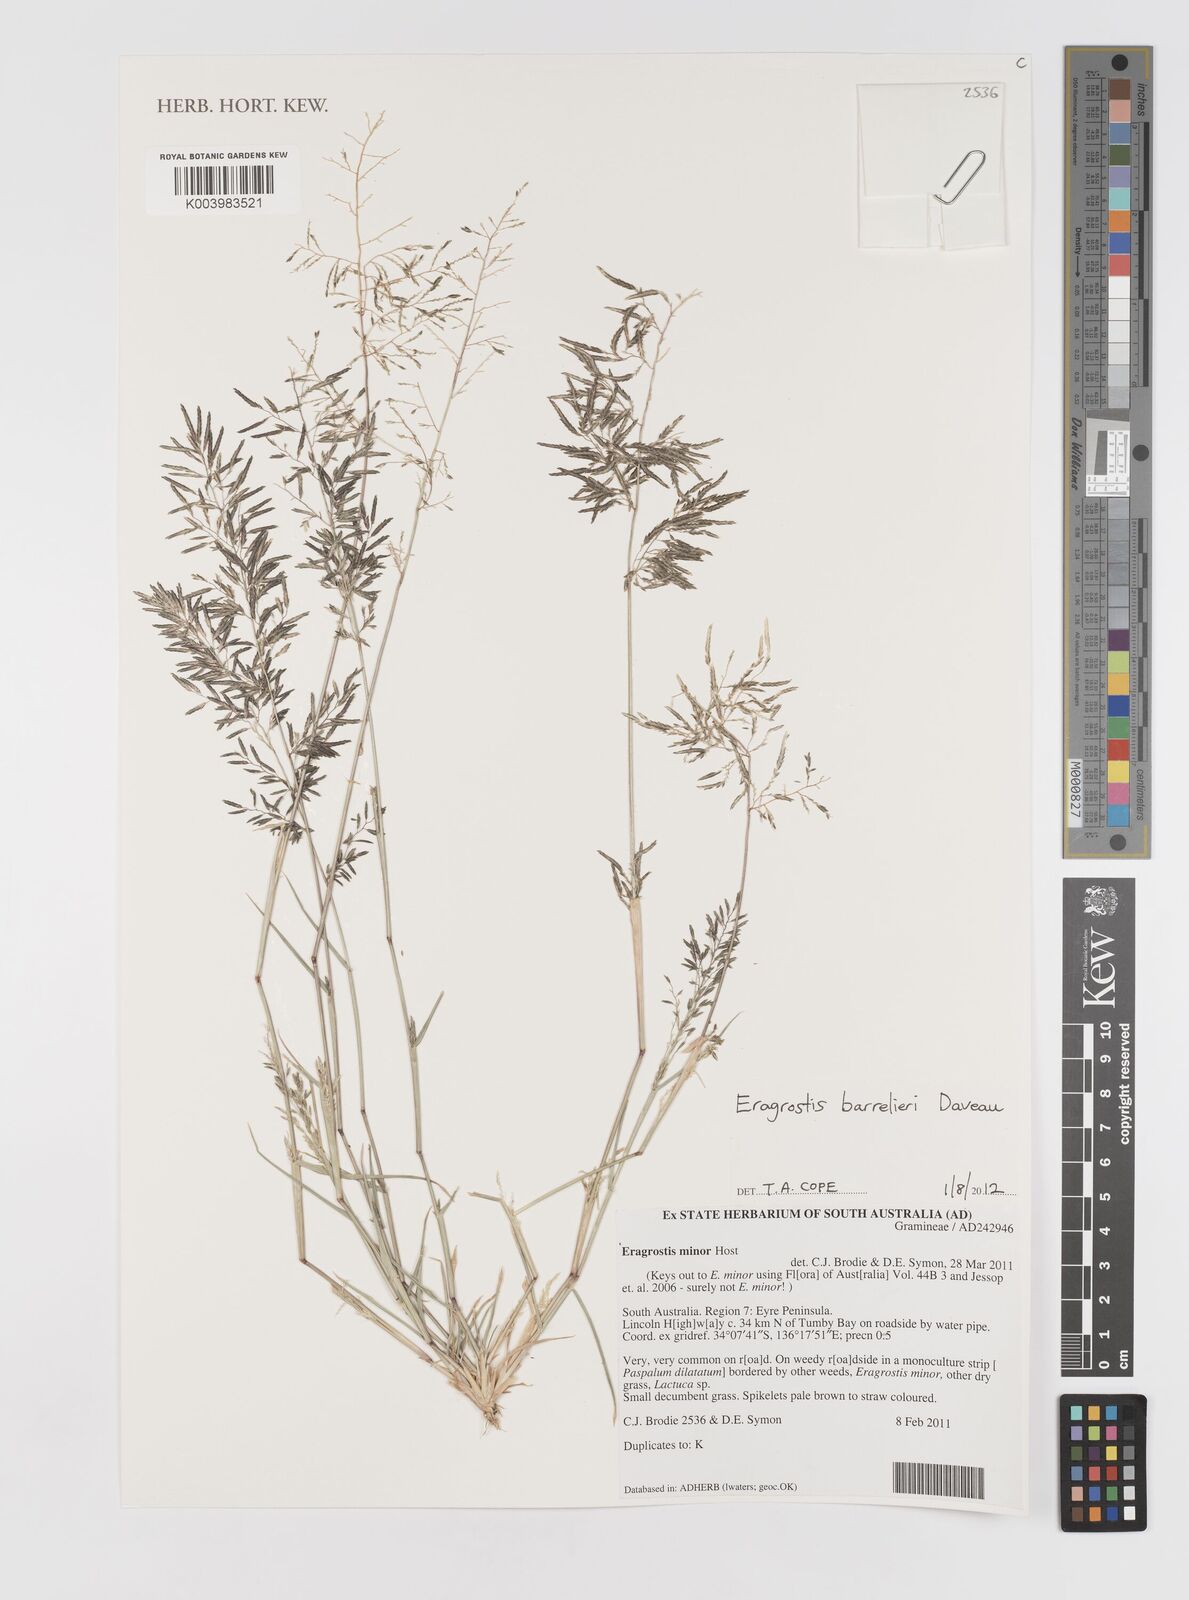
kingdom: Plantae
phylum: Tracheophyta
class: Liliopsida
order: Poales
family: Poaceae
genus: Eragrostis
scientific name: Eragrostis barrelieri
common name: Mediterranean lovegrass
